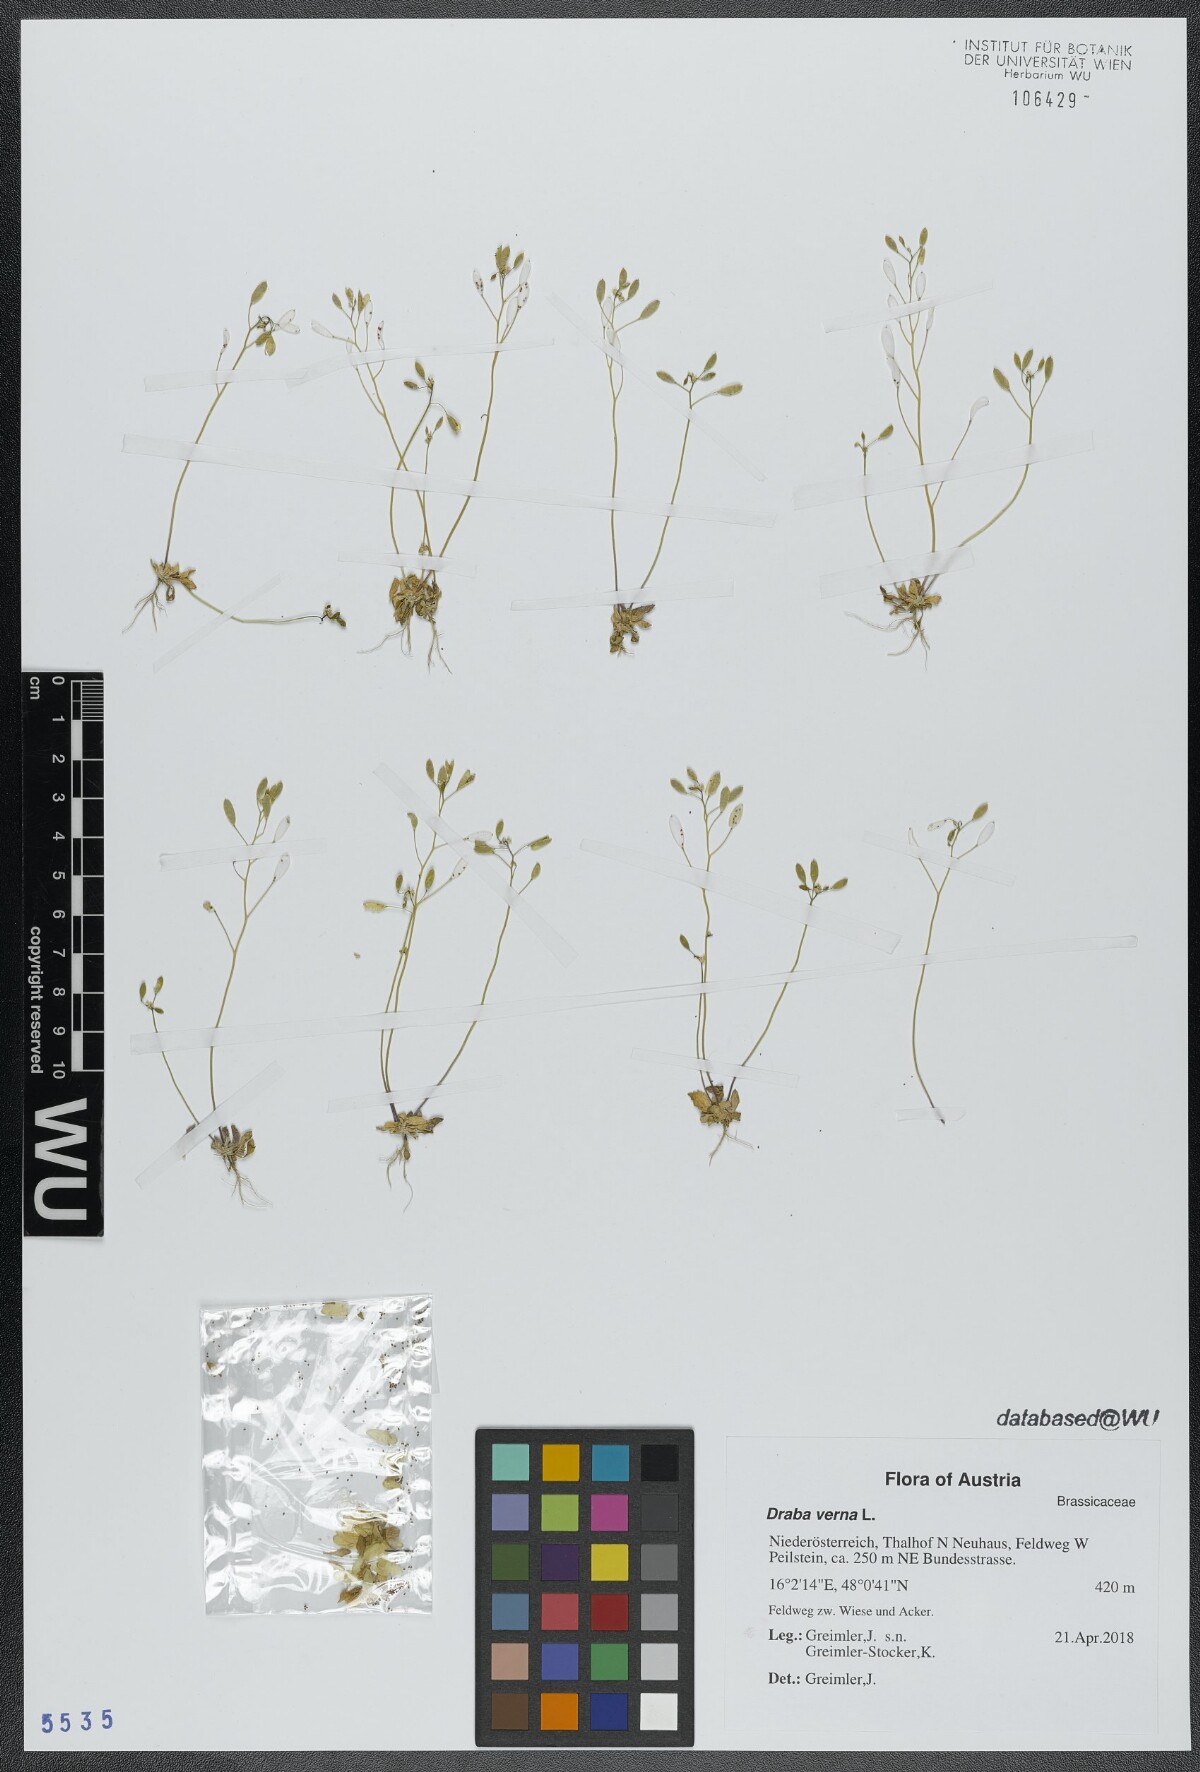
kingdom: Plantae
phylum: Tracheophyta
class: Magnoliopsida
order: Brassicales
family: Brassicaceae
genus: Draba
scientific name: Draba verna
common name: Spring draba
